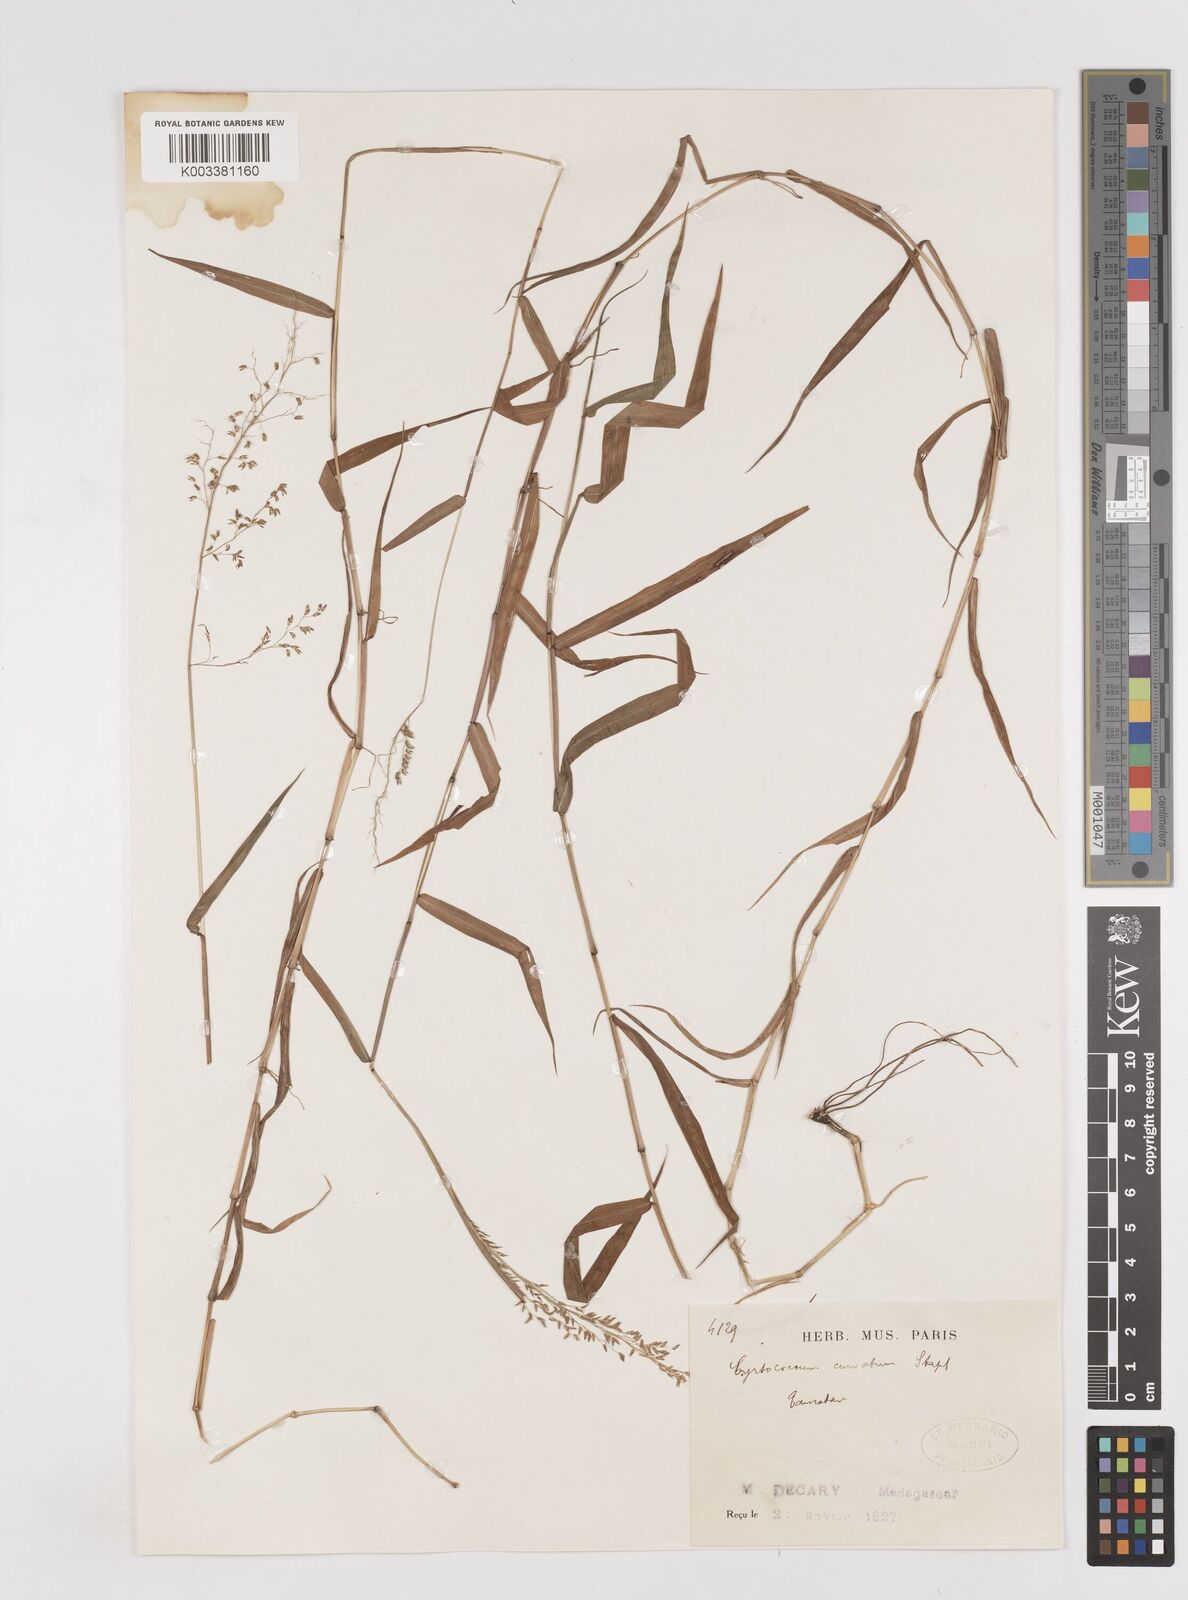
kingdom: Plantae
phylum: Tracheophyta
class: Liliopsida
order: Poales
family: Poaceae
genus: Sacciolepis
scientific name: Sacciolepis curvata
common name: Forest hood grass
